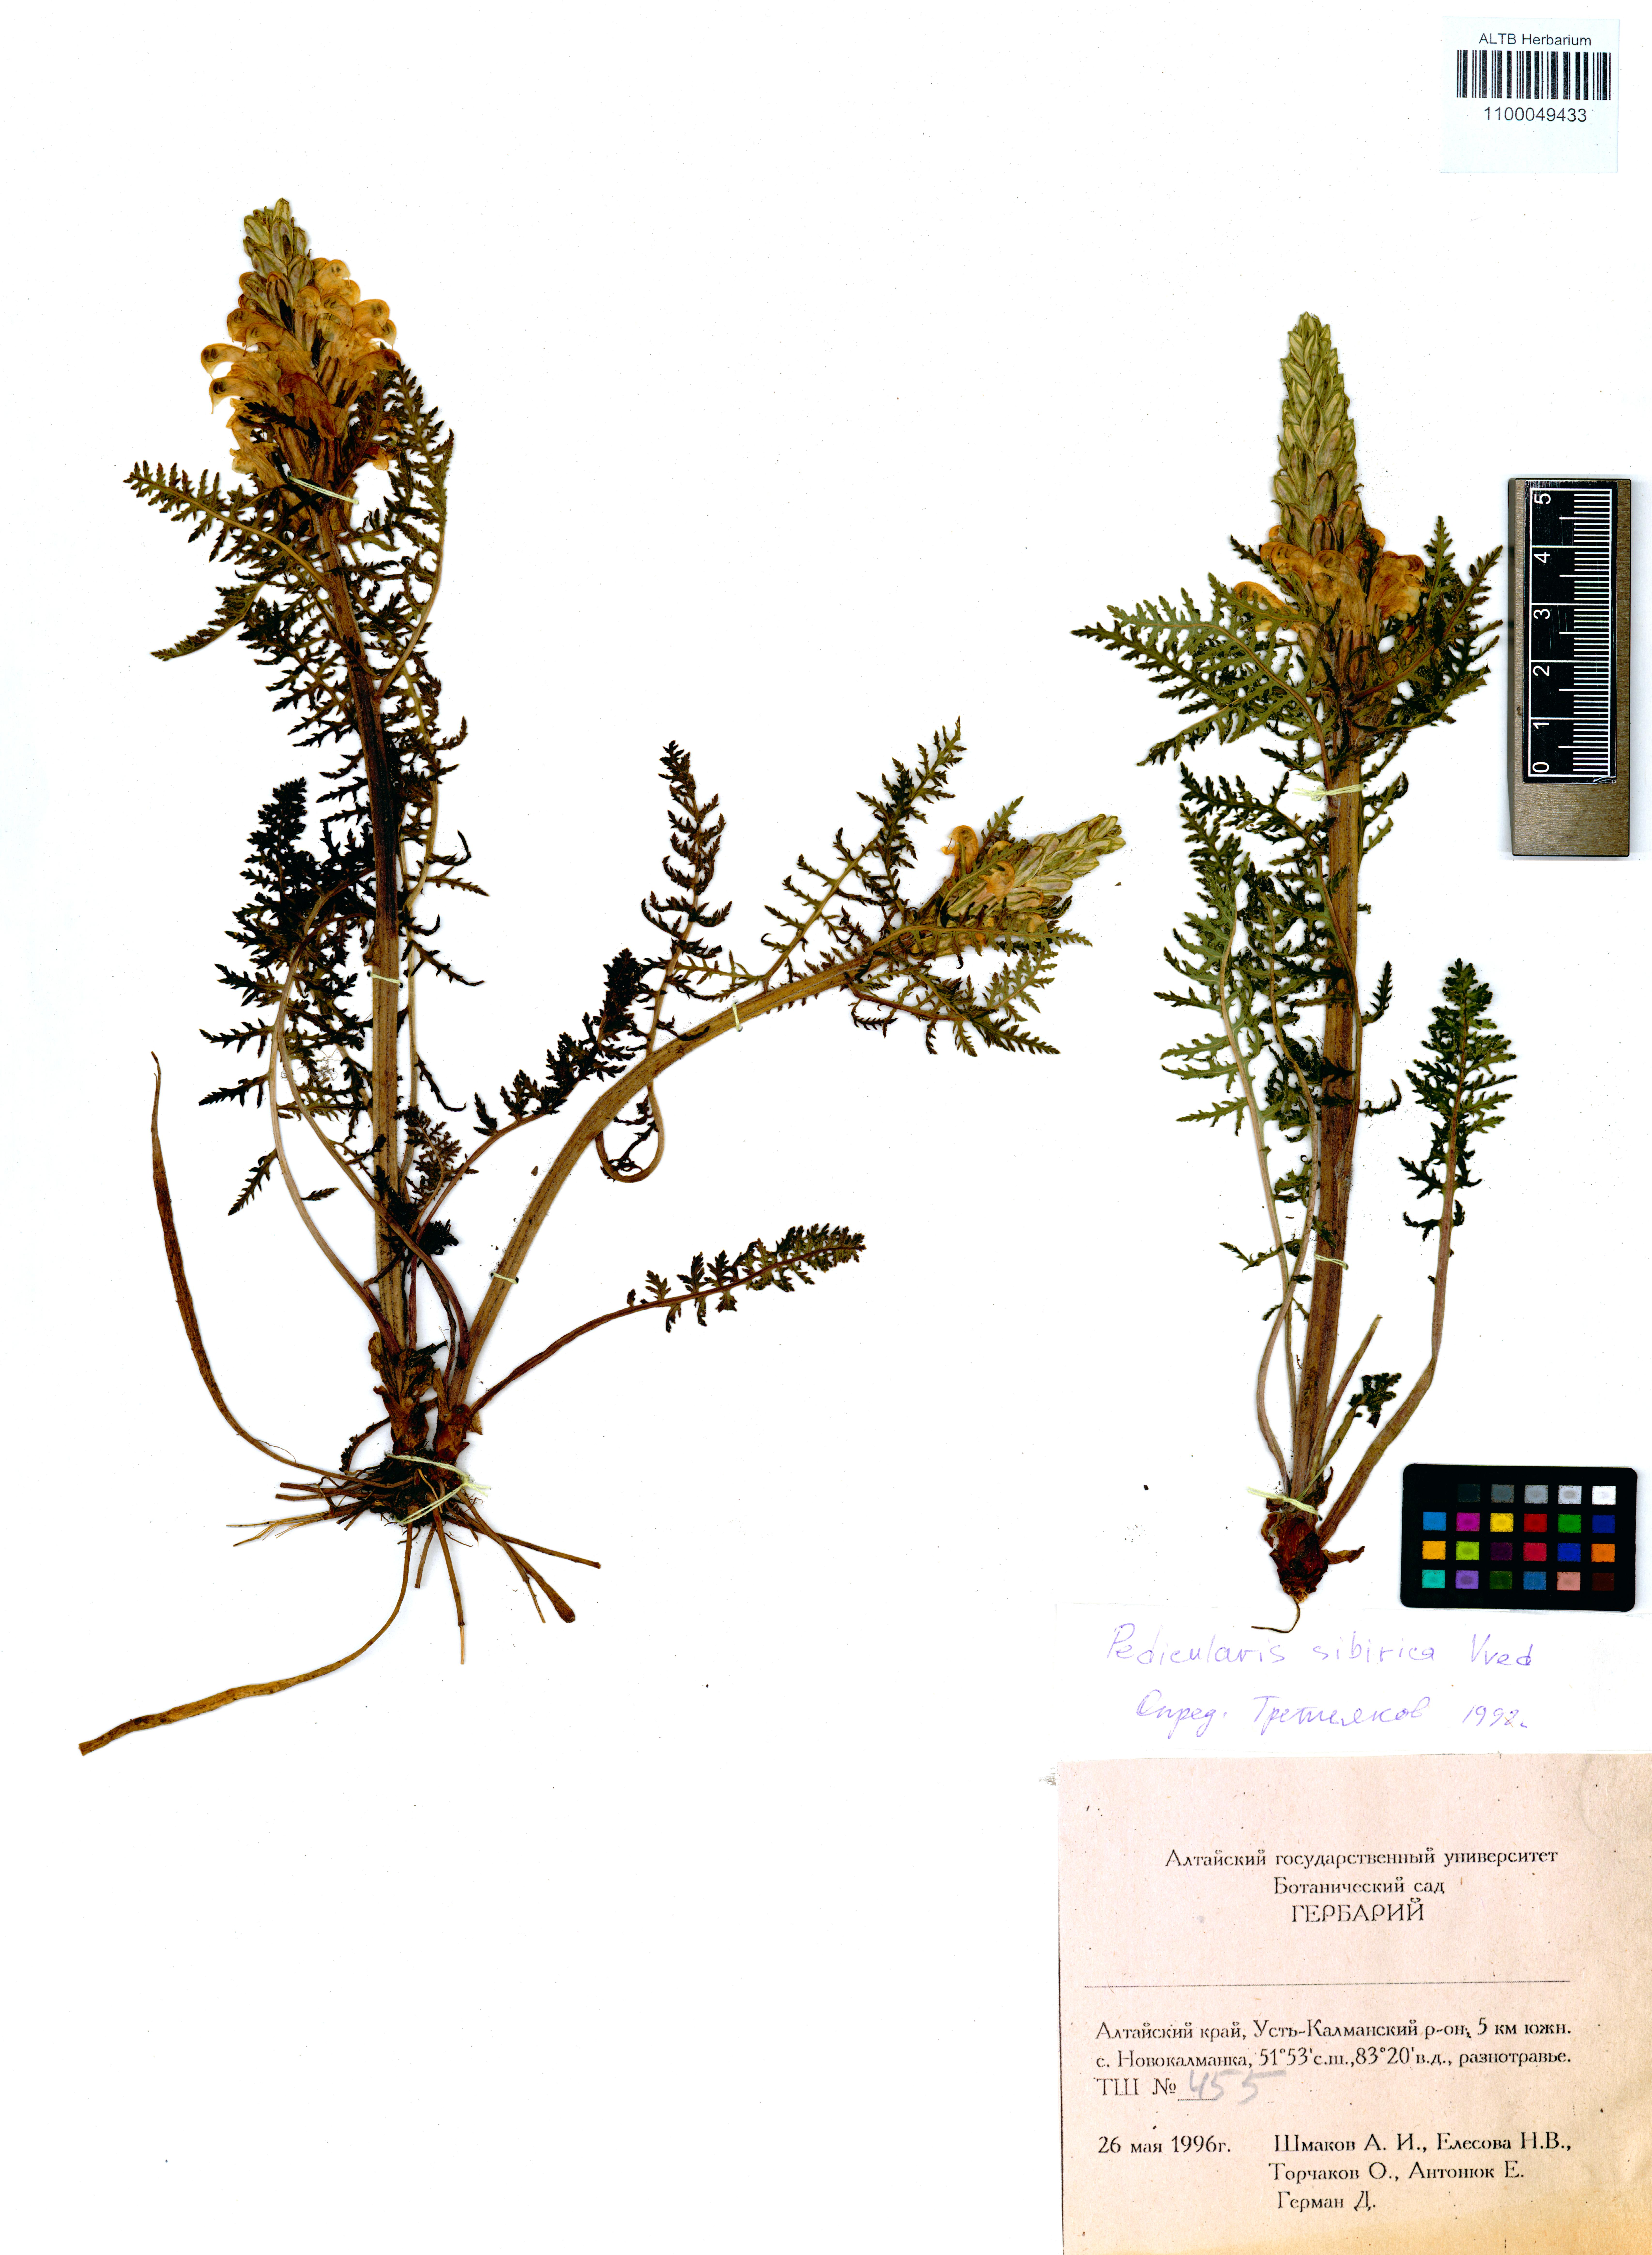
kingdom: Plantae
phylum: Tracheophyta
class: Magnoliopsida
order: Lamiales
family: Orobanchaceae
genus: Pedicularis
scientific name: Pedicularis sibirica
